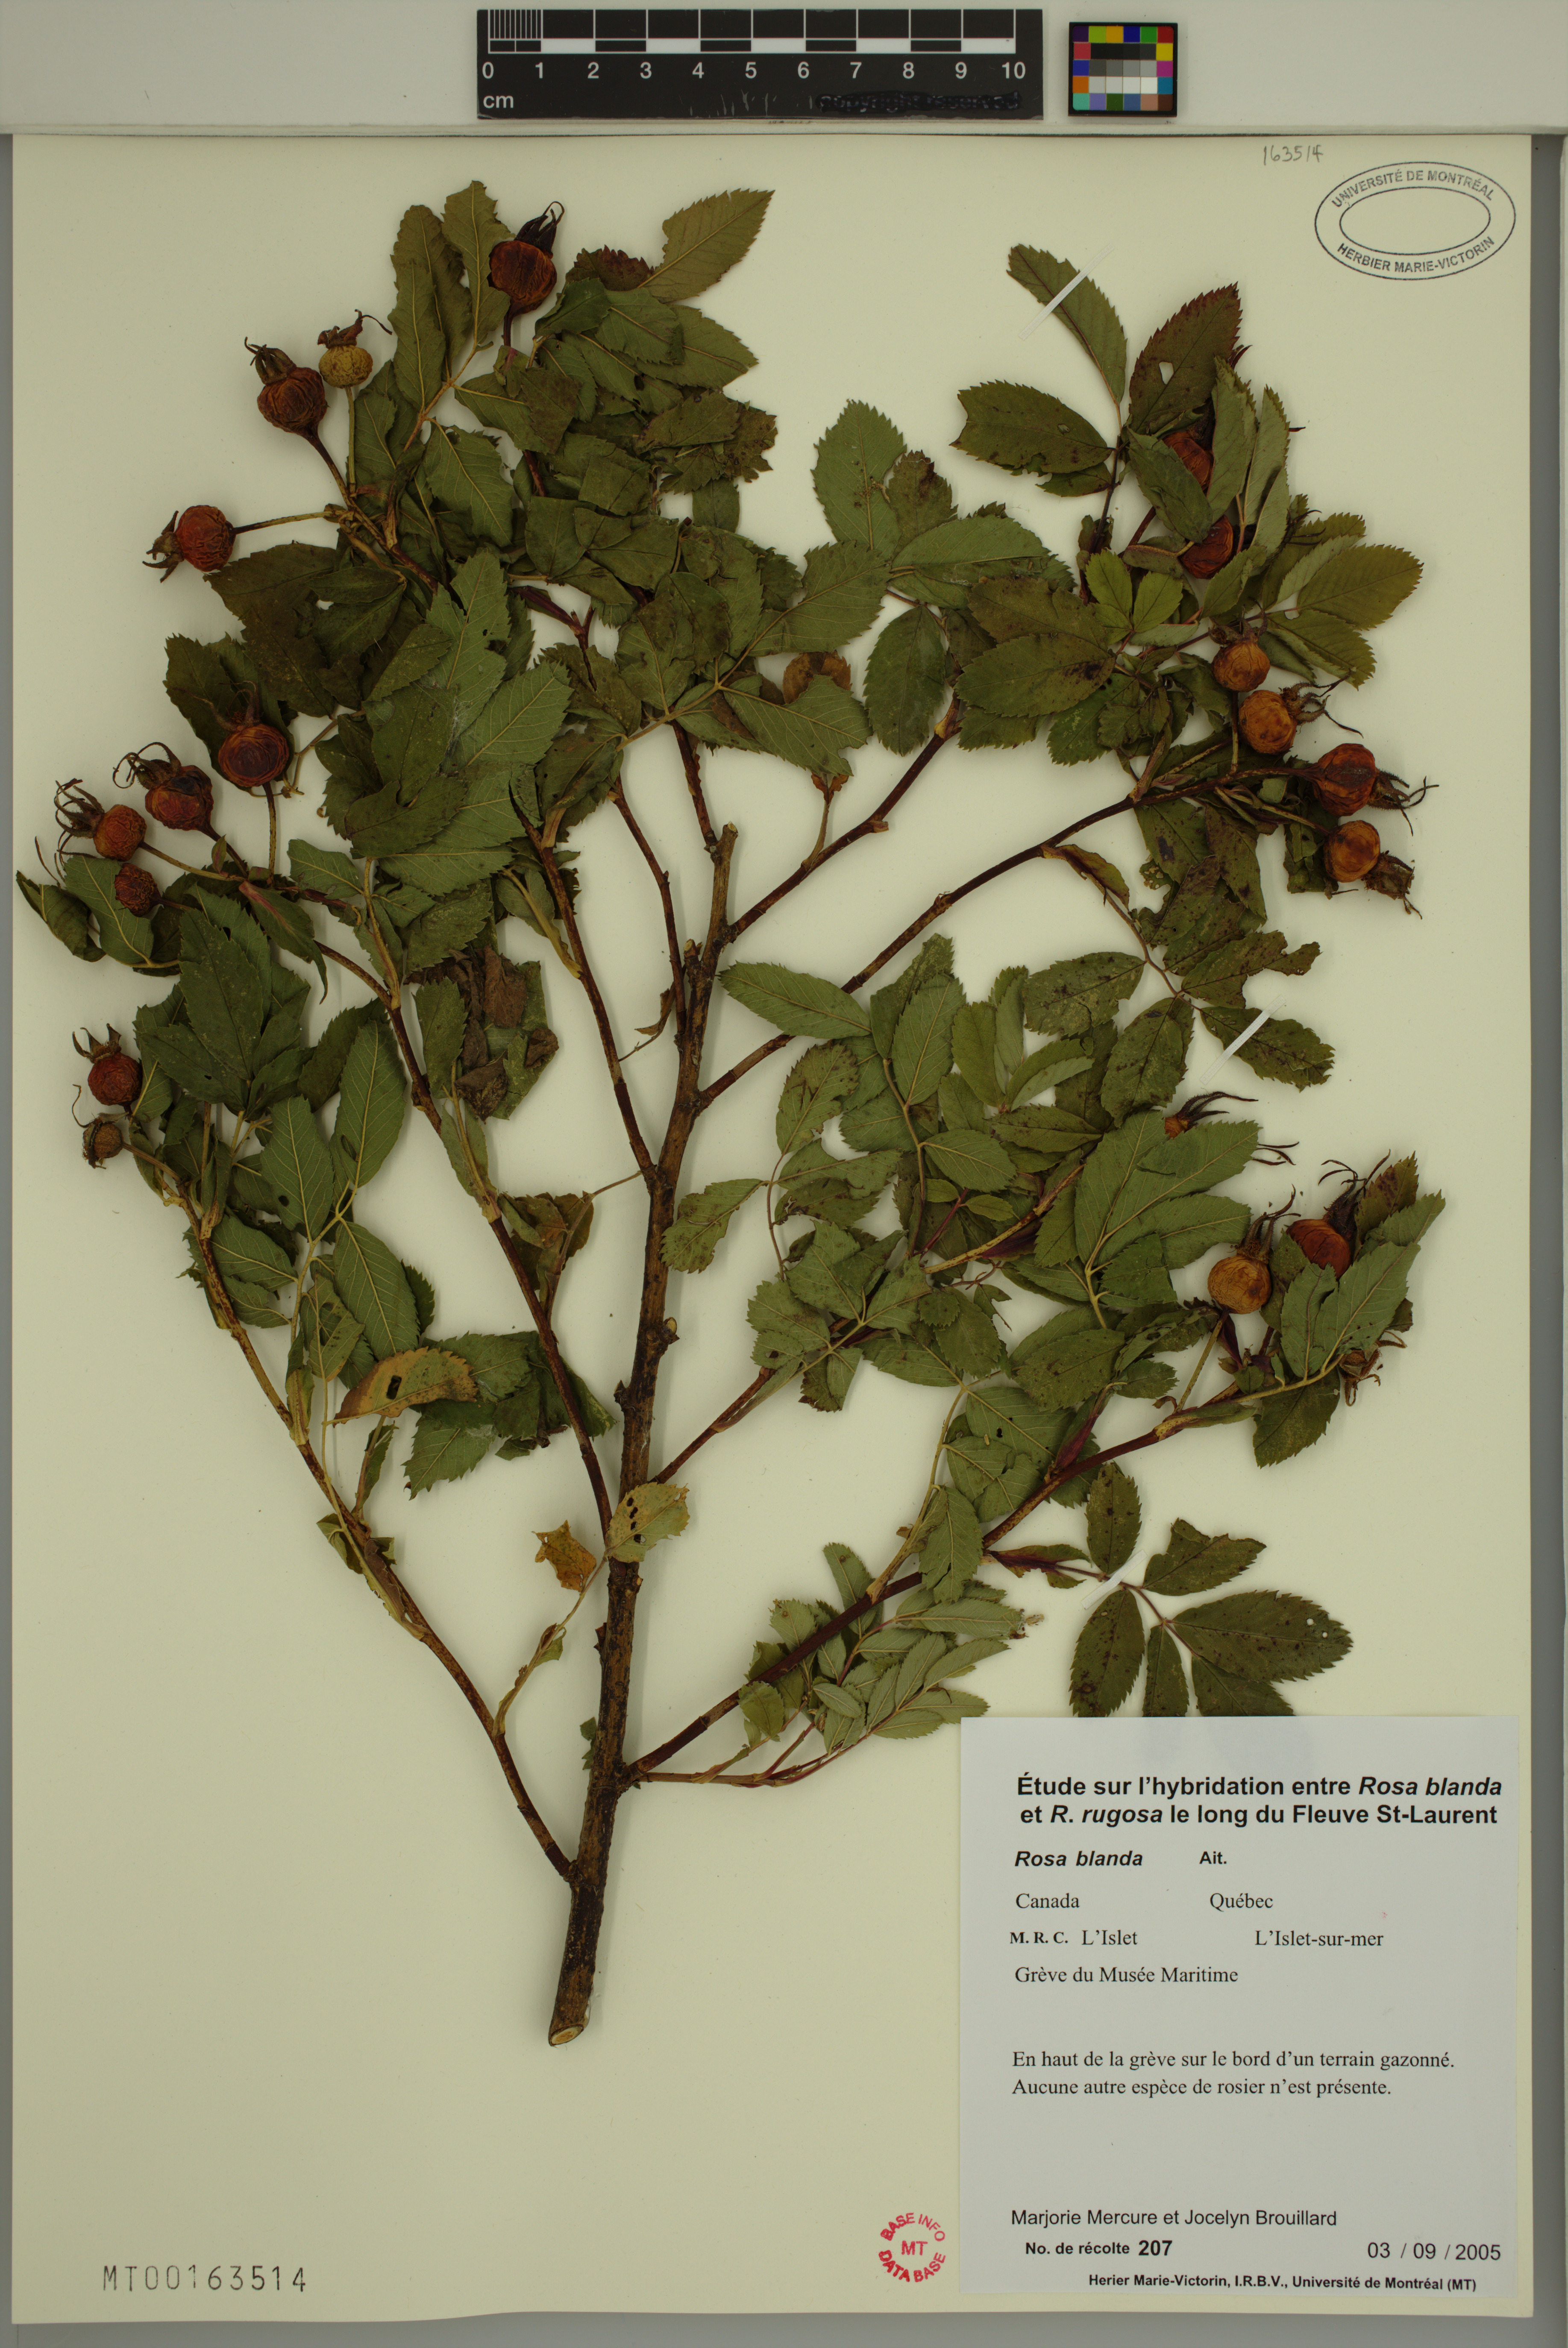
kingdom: Plantae
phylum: Tracheophyta
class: Magnoliopsida
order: Rosales
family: Rosaceae
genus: Rosa
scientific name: Rosa blanda
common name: Smooth rose
